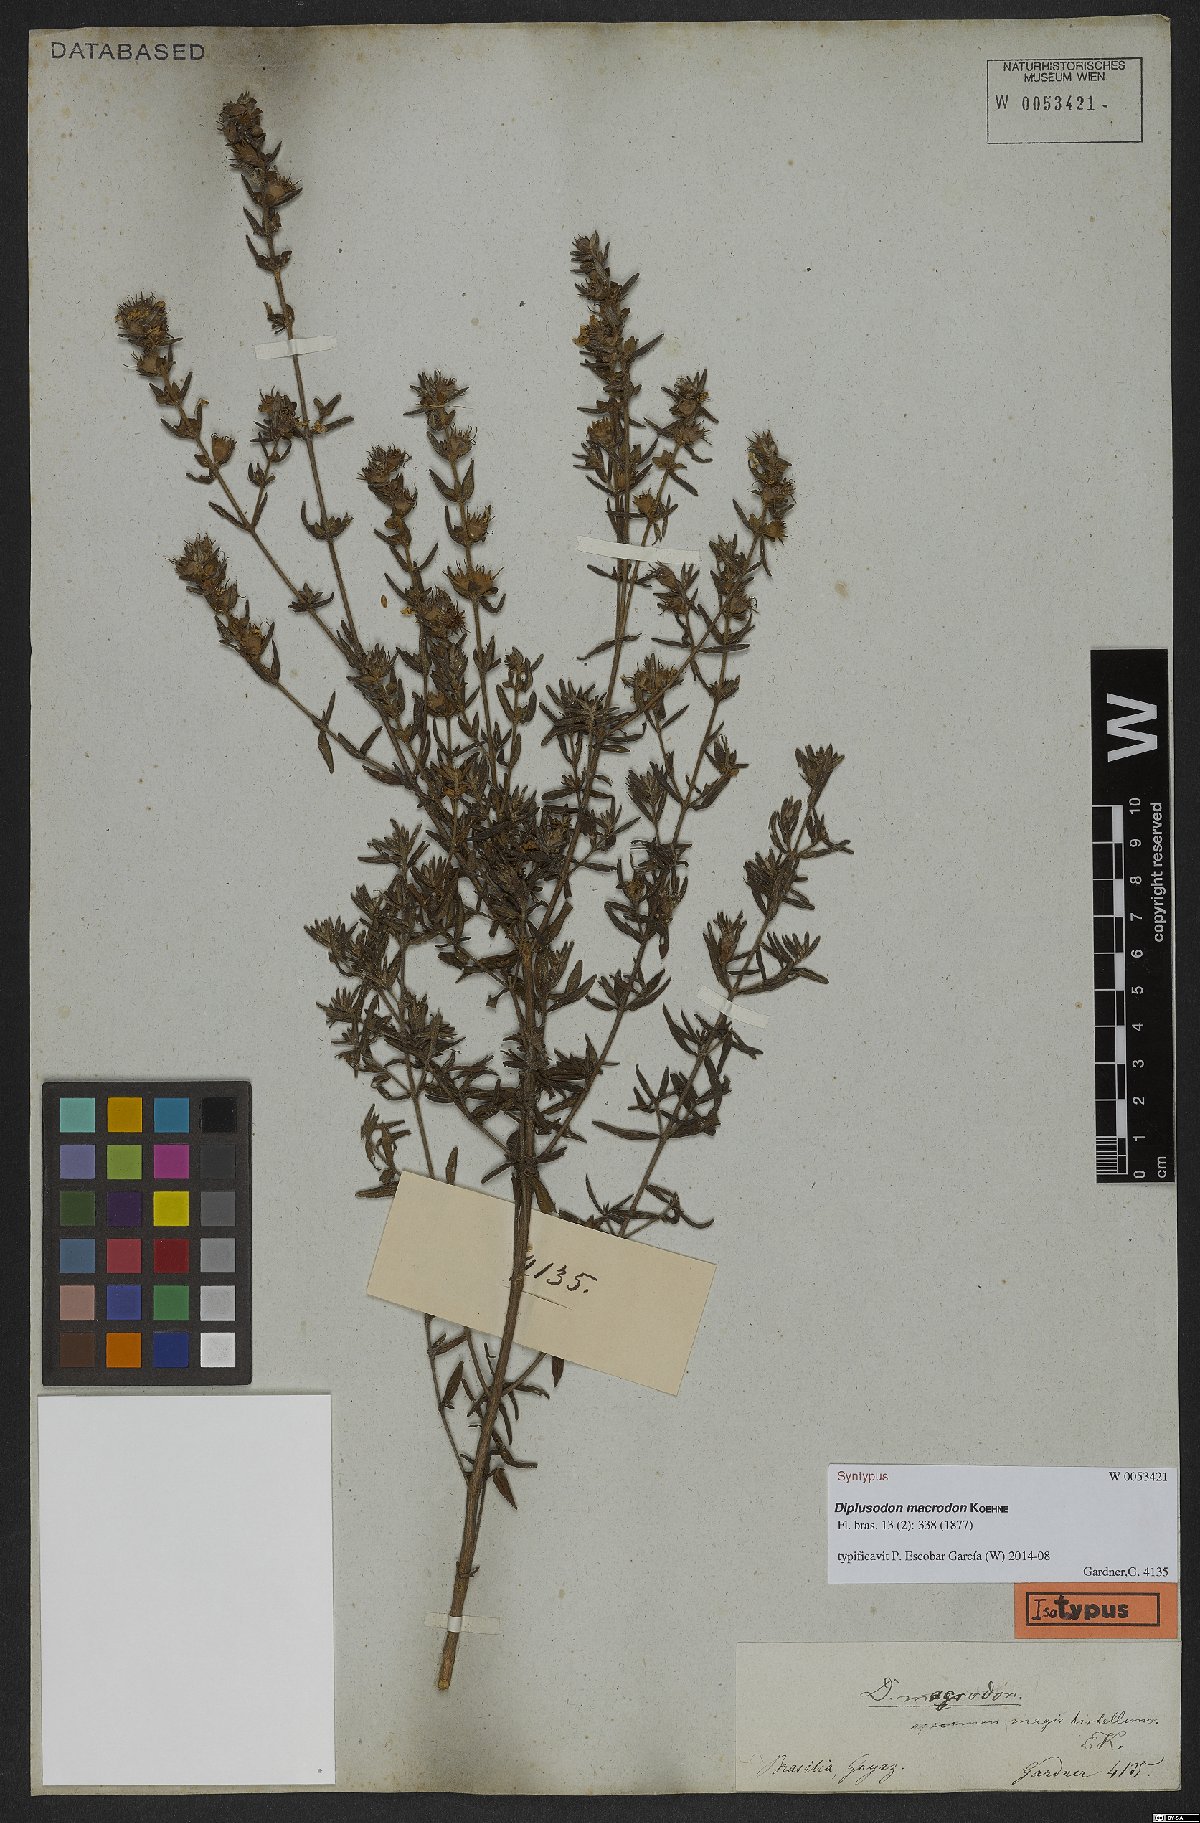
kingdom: Plantae
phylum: Tracheophyta
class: Magnoliopsida
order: Myrtales
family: Lythraceae
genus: Diplusodon
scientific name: Diplusodon macrodon
